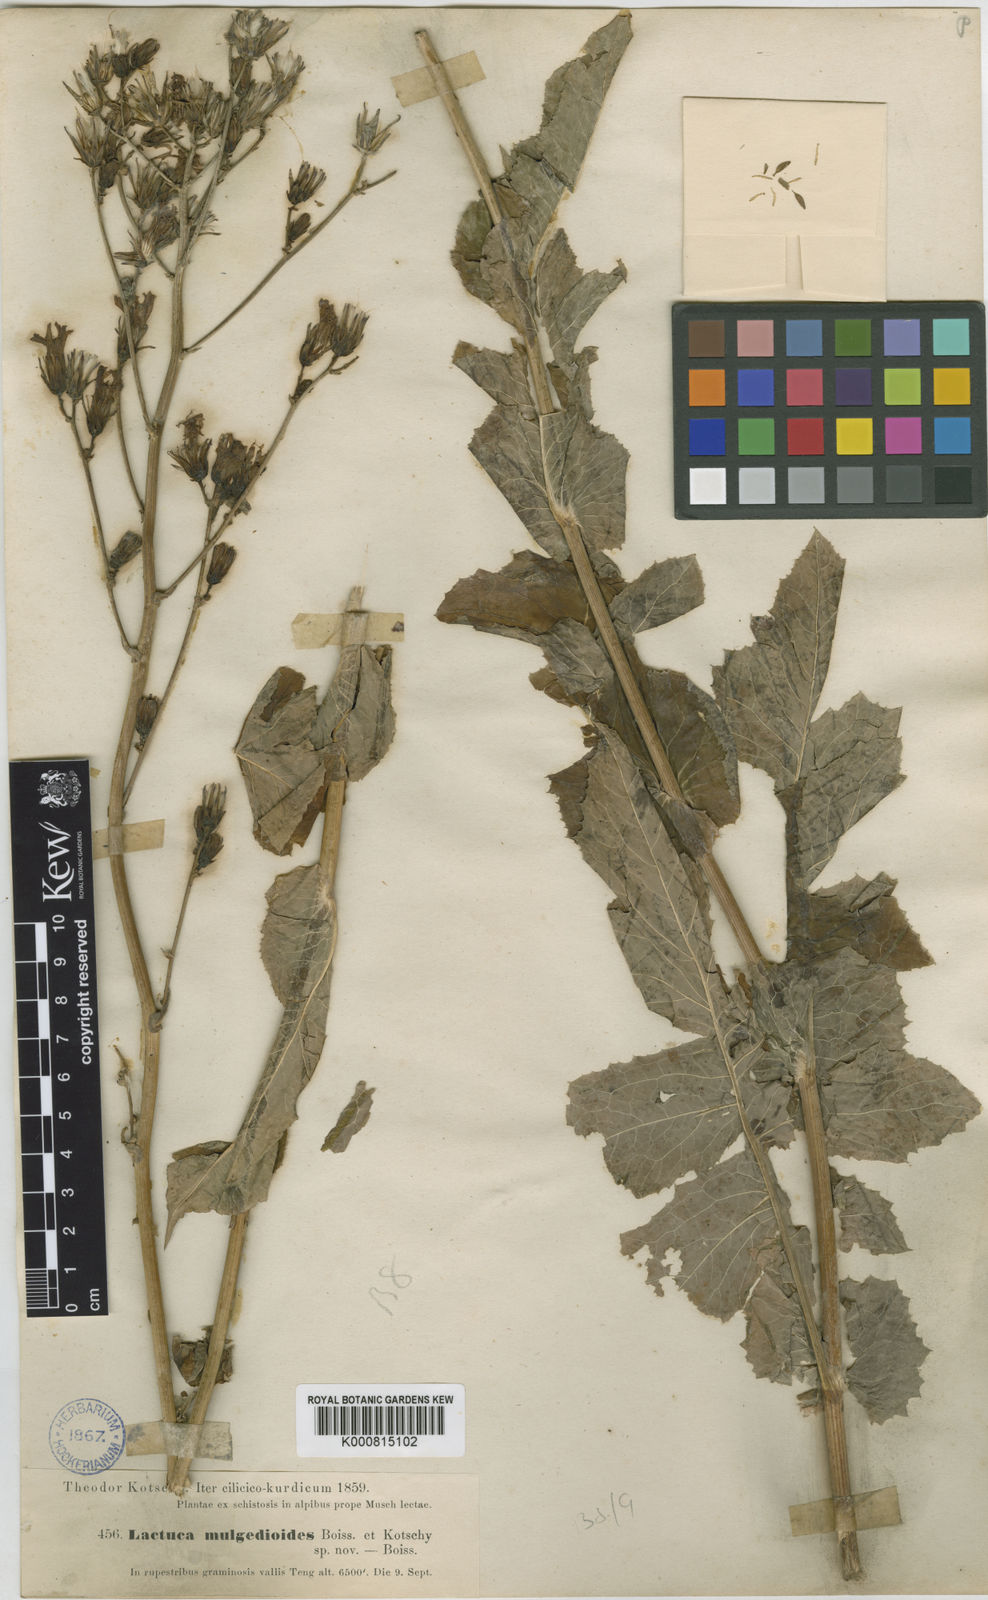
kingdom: Plantae
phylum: Tracheophyta
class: Magnoliopsida
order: Asterales
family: Asteraceae
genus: Lactuca
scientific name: Lactuca mulgedioides
